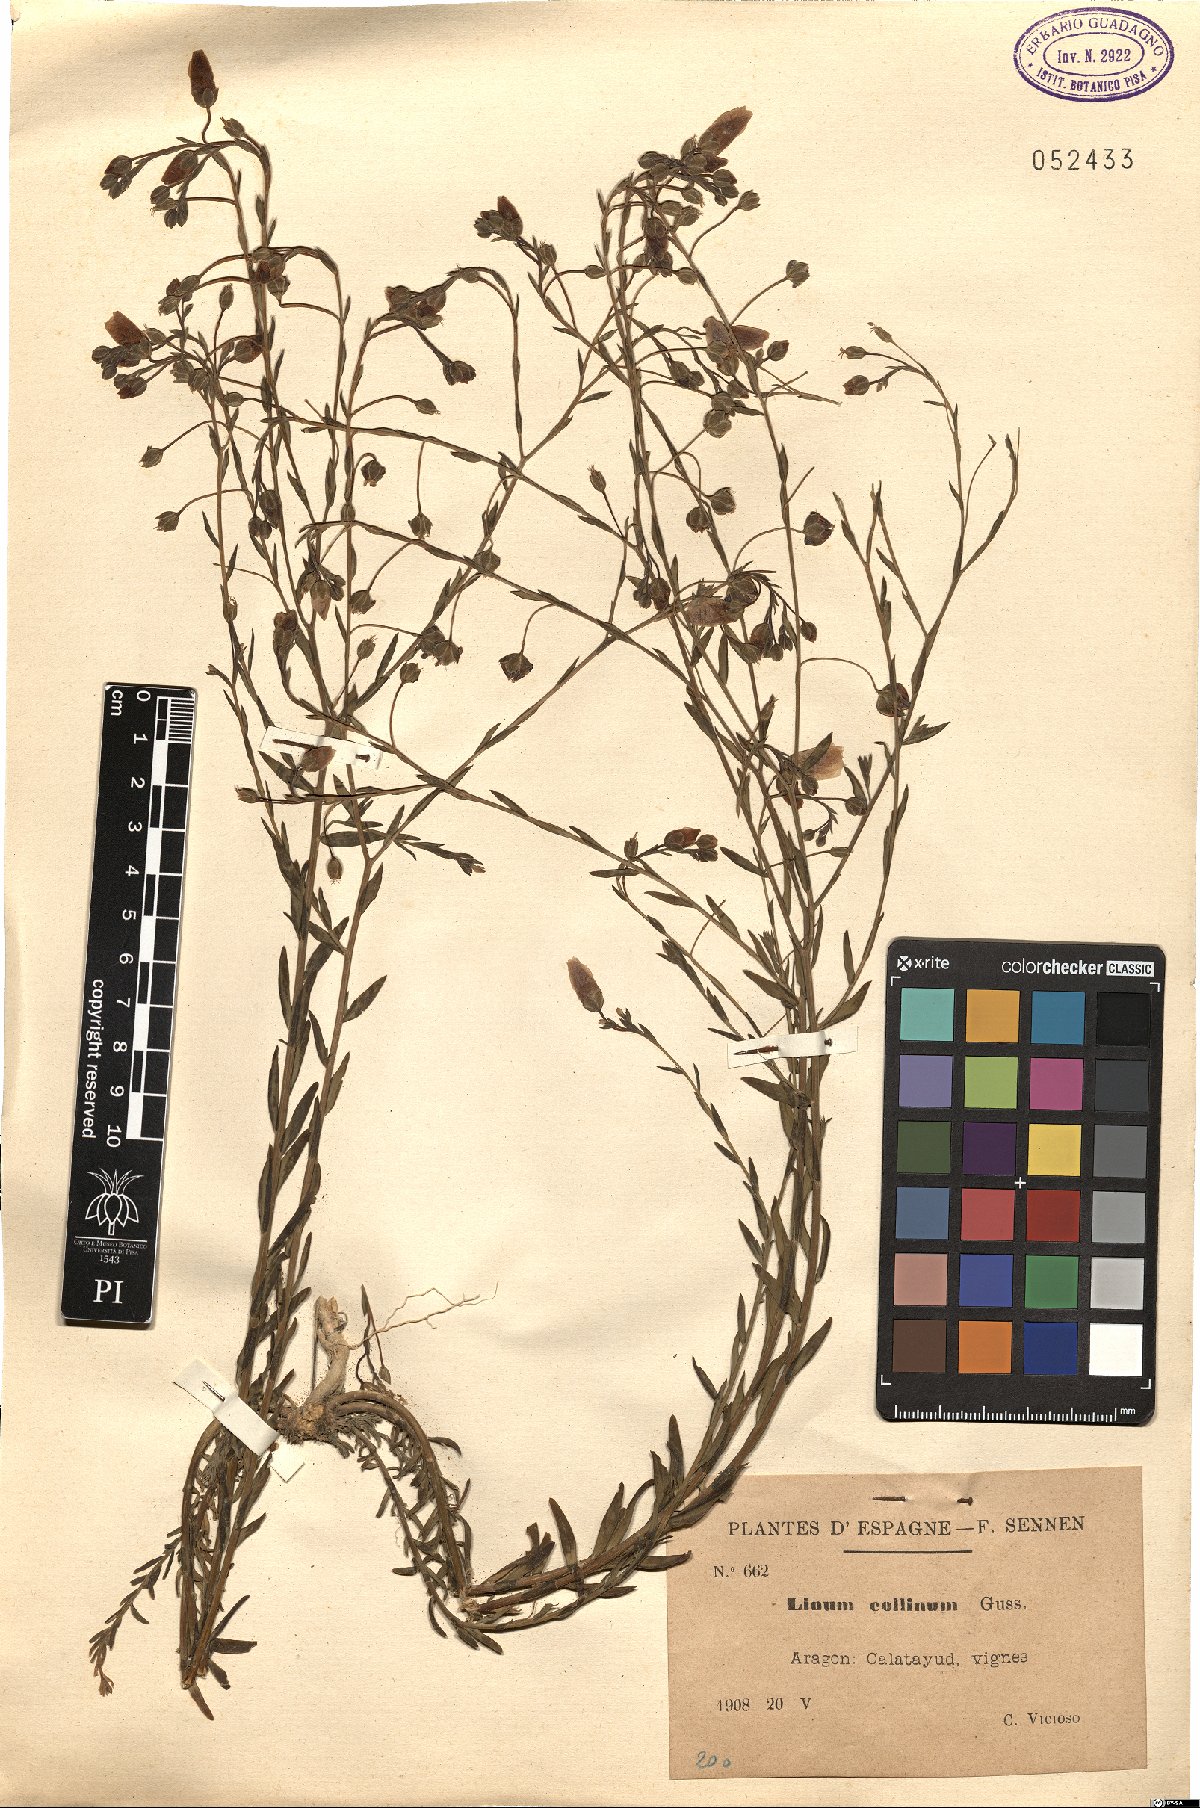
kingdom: Plantae
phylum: Tracheophyta
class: Magnoliopsida
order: Malpighiales
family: Linaceae
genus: Linum
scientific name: Linum
